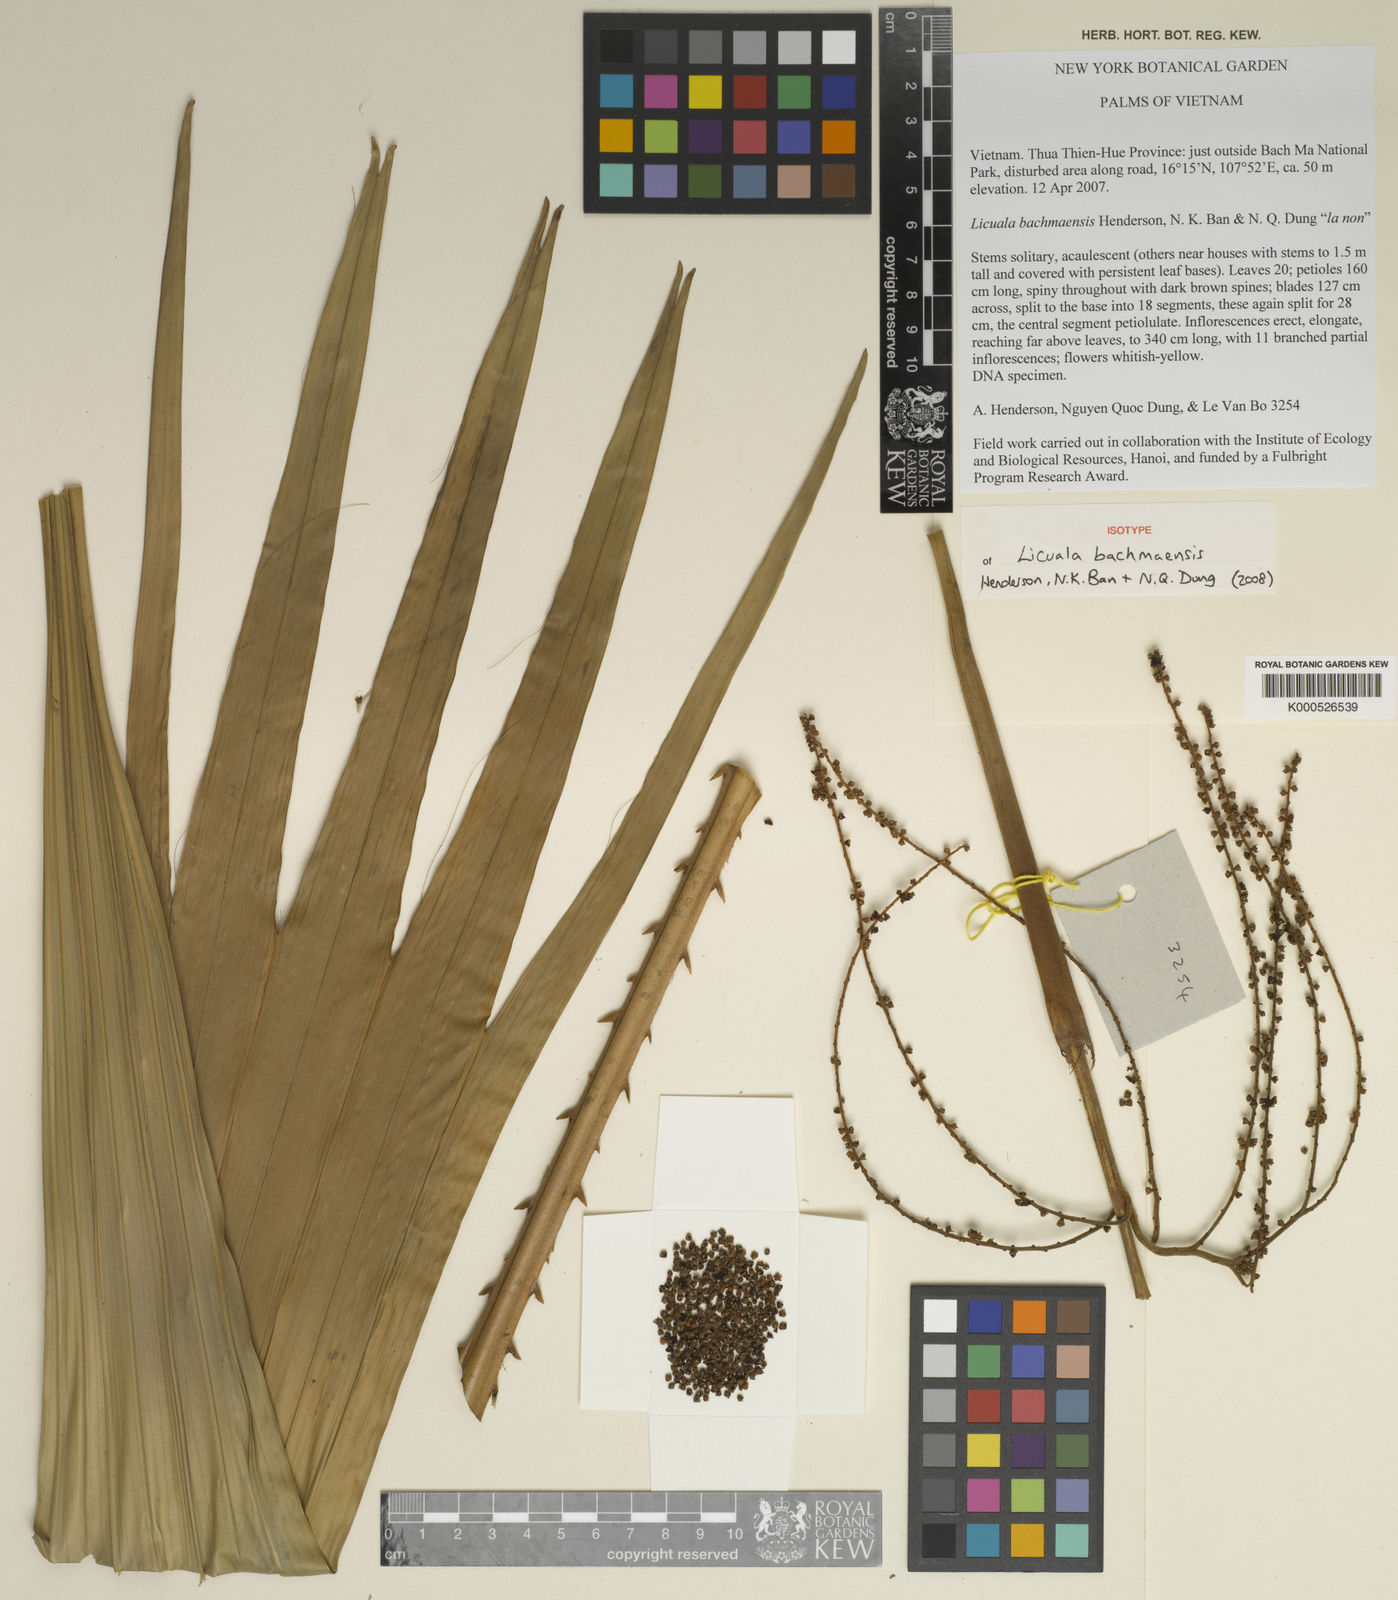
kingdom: Plantae
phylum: Tracheophyta
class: Liliopsida
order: Arecales
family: Arecaceae
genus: Licuala
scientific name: Licuala
